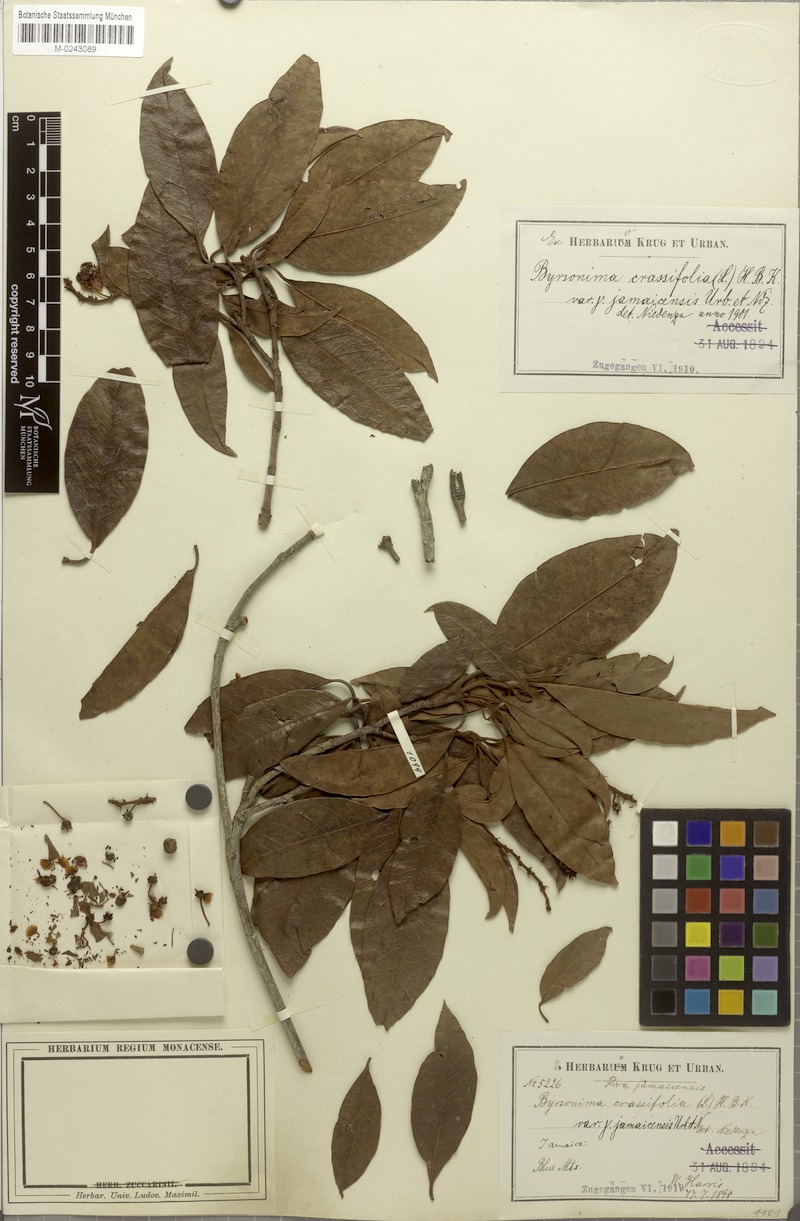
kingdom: Plantae
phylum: Tracheophyta
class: Magnoliopsida
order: Malpighiales
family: Malpighiaceae
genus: Byrsonima
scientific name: Byrsonima crassifolia
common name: Golden spoon
